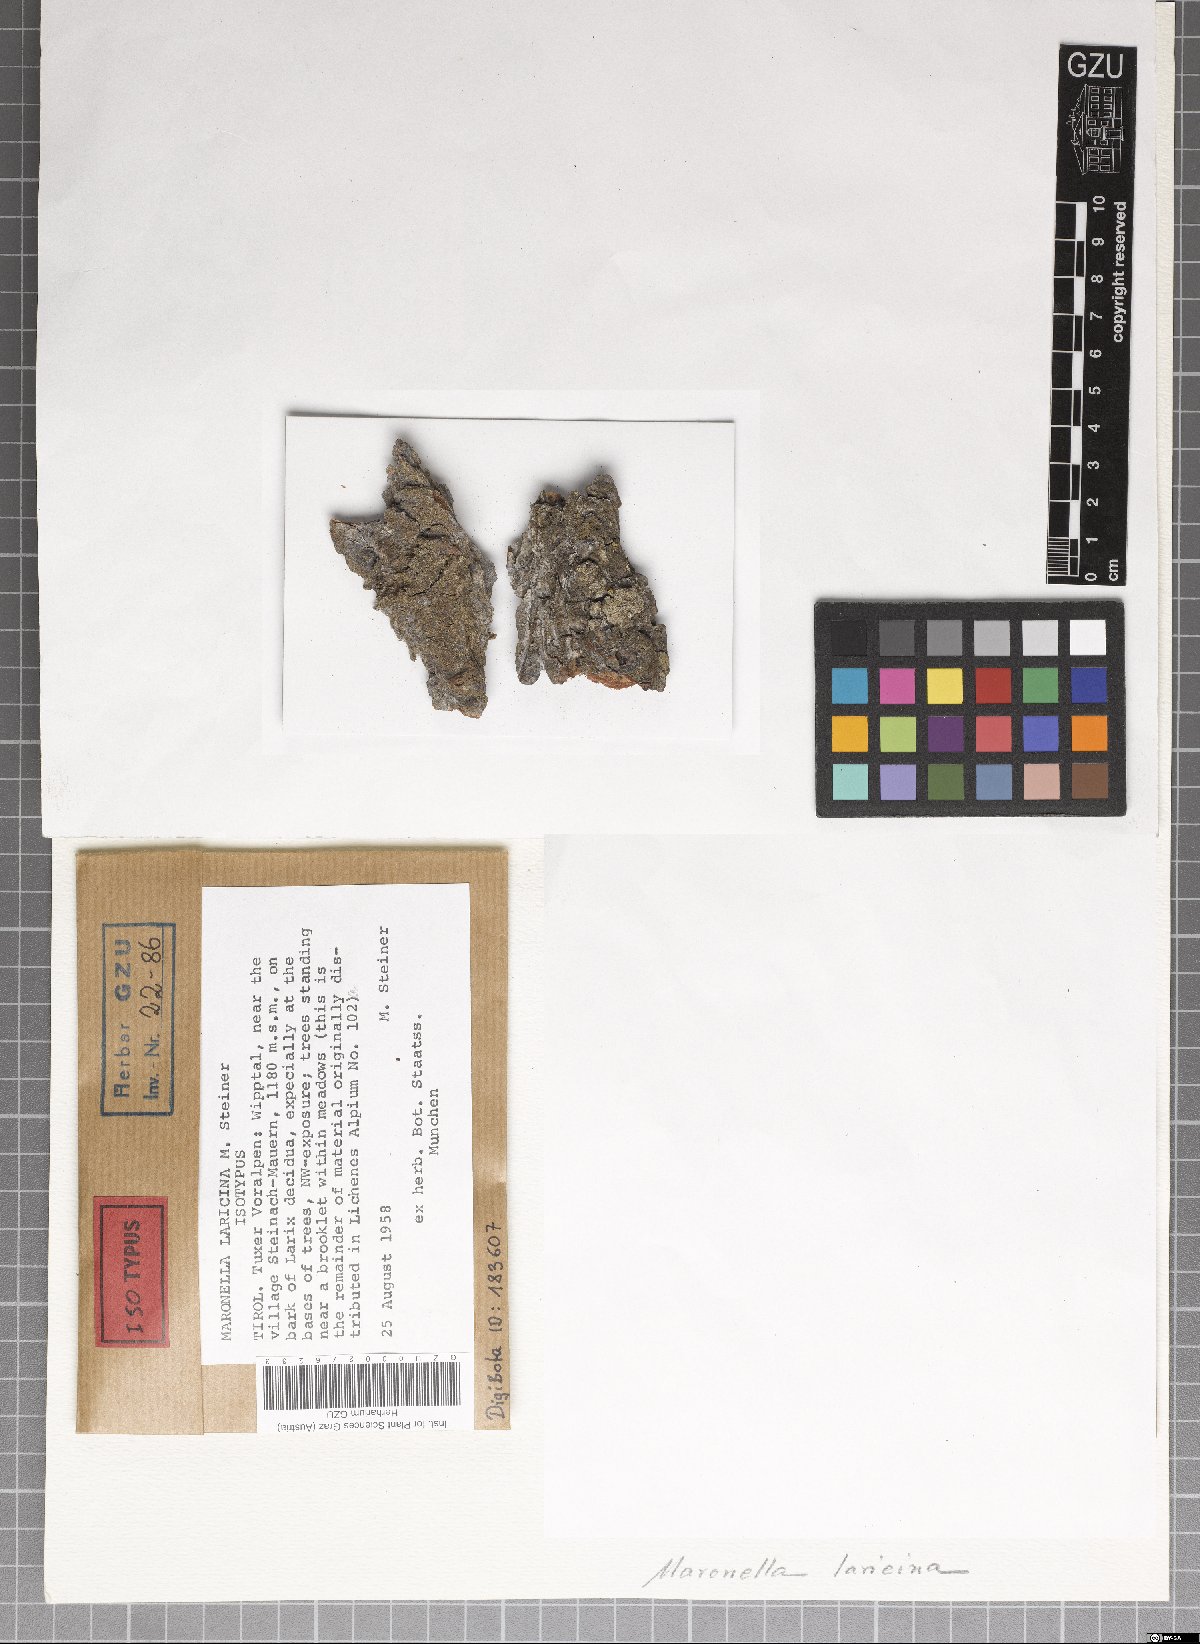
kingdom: Fungi
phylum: Ascomycota
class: Lecanoromycetes
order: Acarosporales
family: Acarosporaceae
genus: Maronella
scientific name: Maronella laricina
